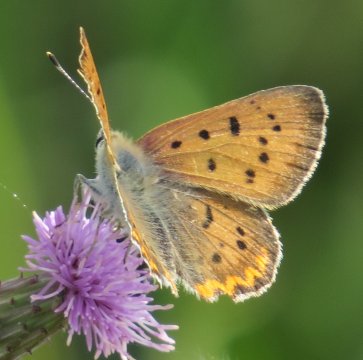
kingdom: Animalia
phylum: Arthropoda
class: Insecta
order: Lepidoptera
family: Sesiidae
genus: Sesia
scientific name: Sesia Lycaena helloides
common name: Purplish Copper
